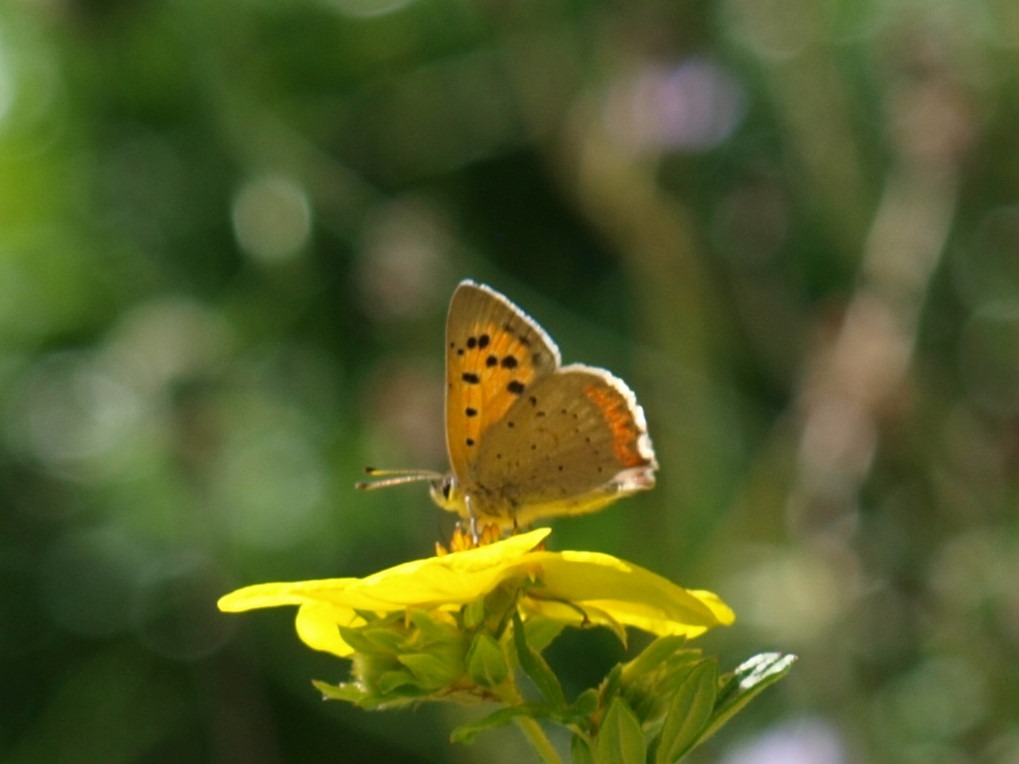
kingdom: Animalia
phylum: Arthropoda
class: Insecta
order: Lepidoptera
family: Lycaenidae
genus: Lycaena
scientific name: Lycaena phlaeas
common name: Lille ildfugl
